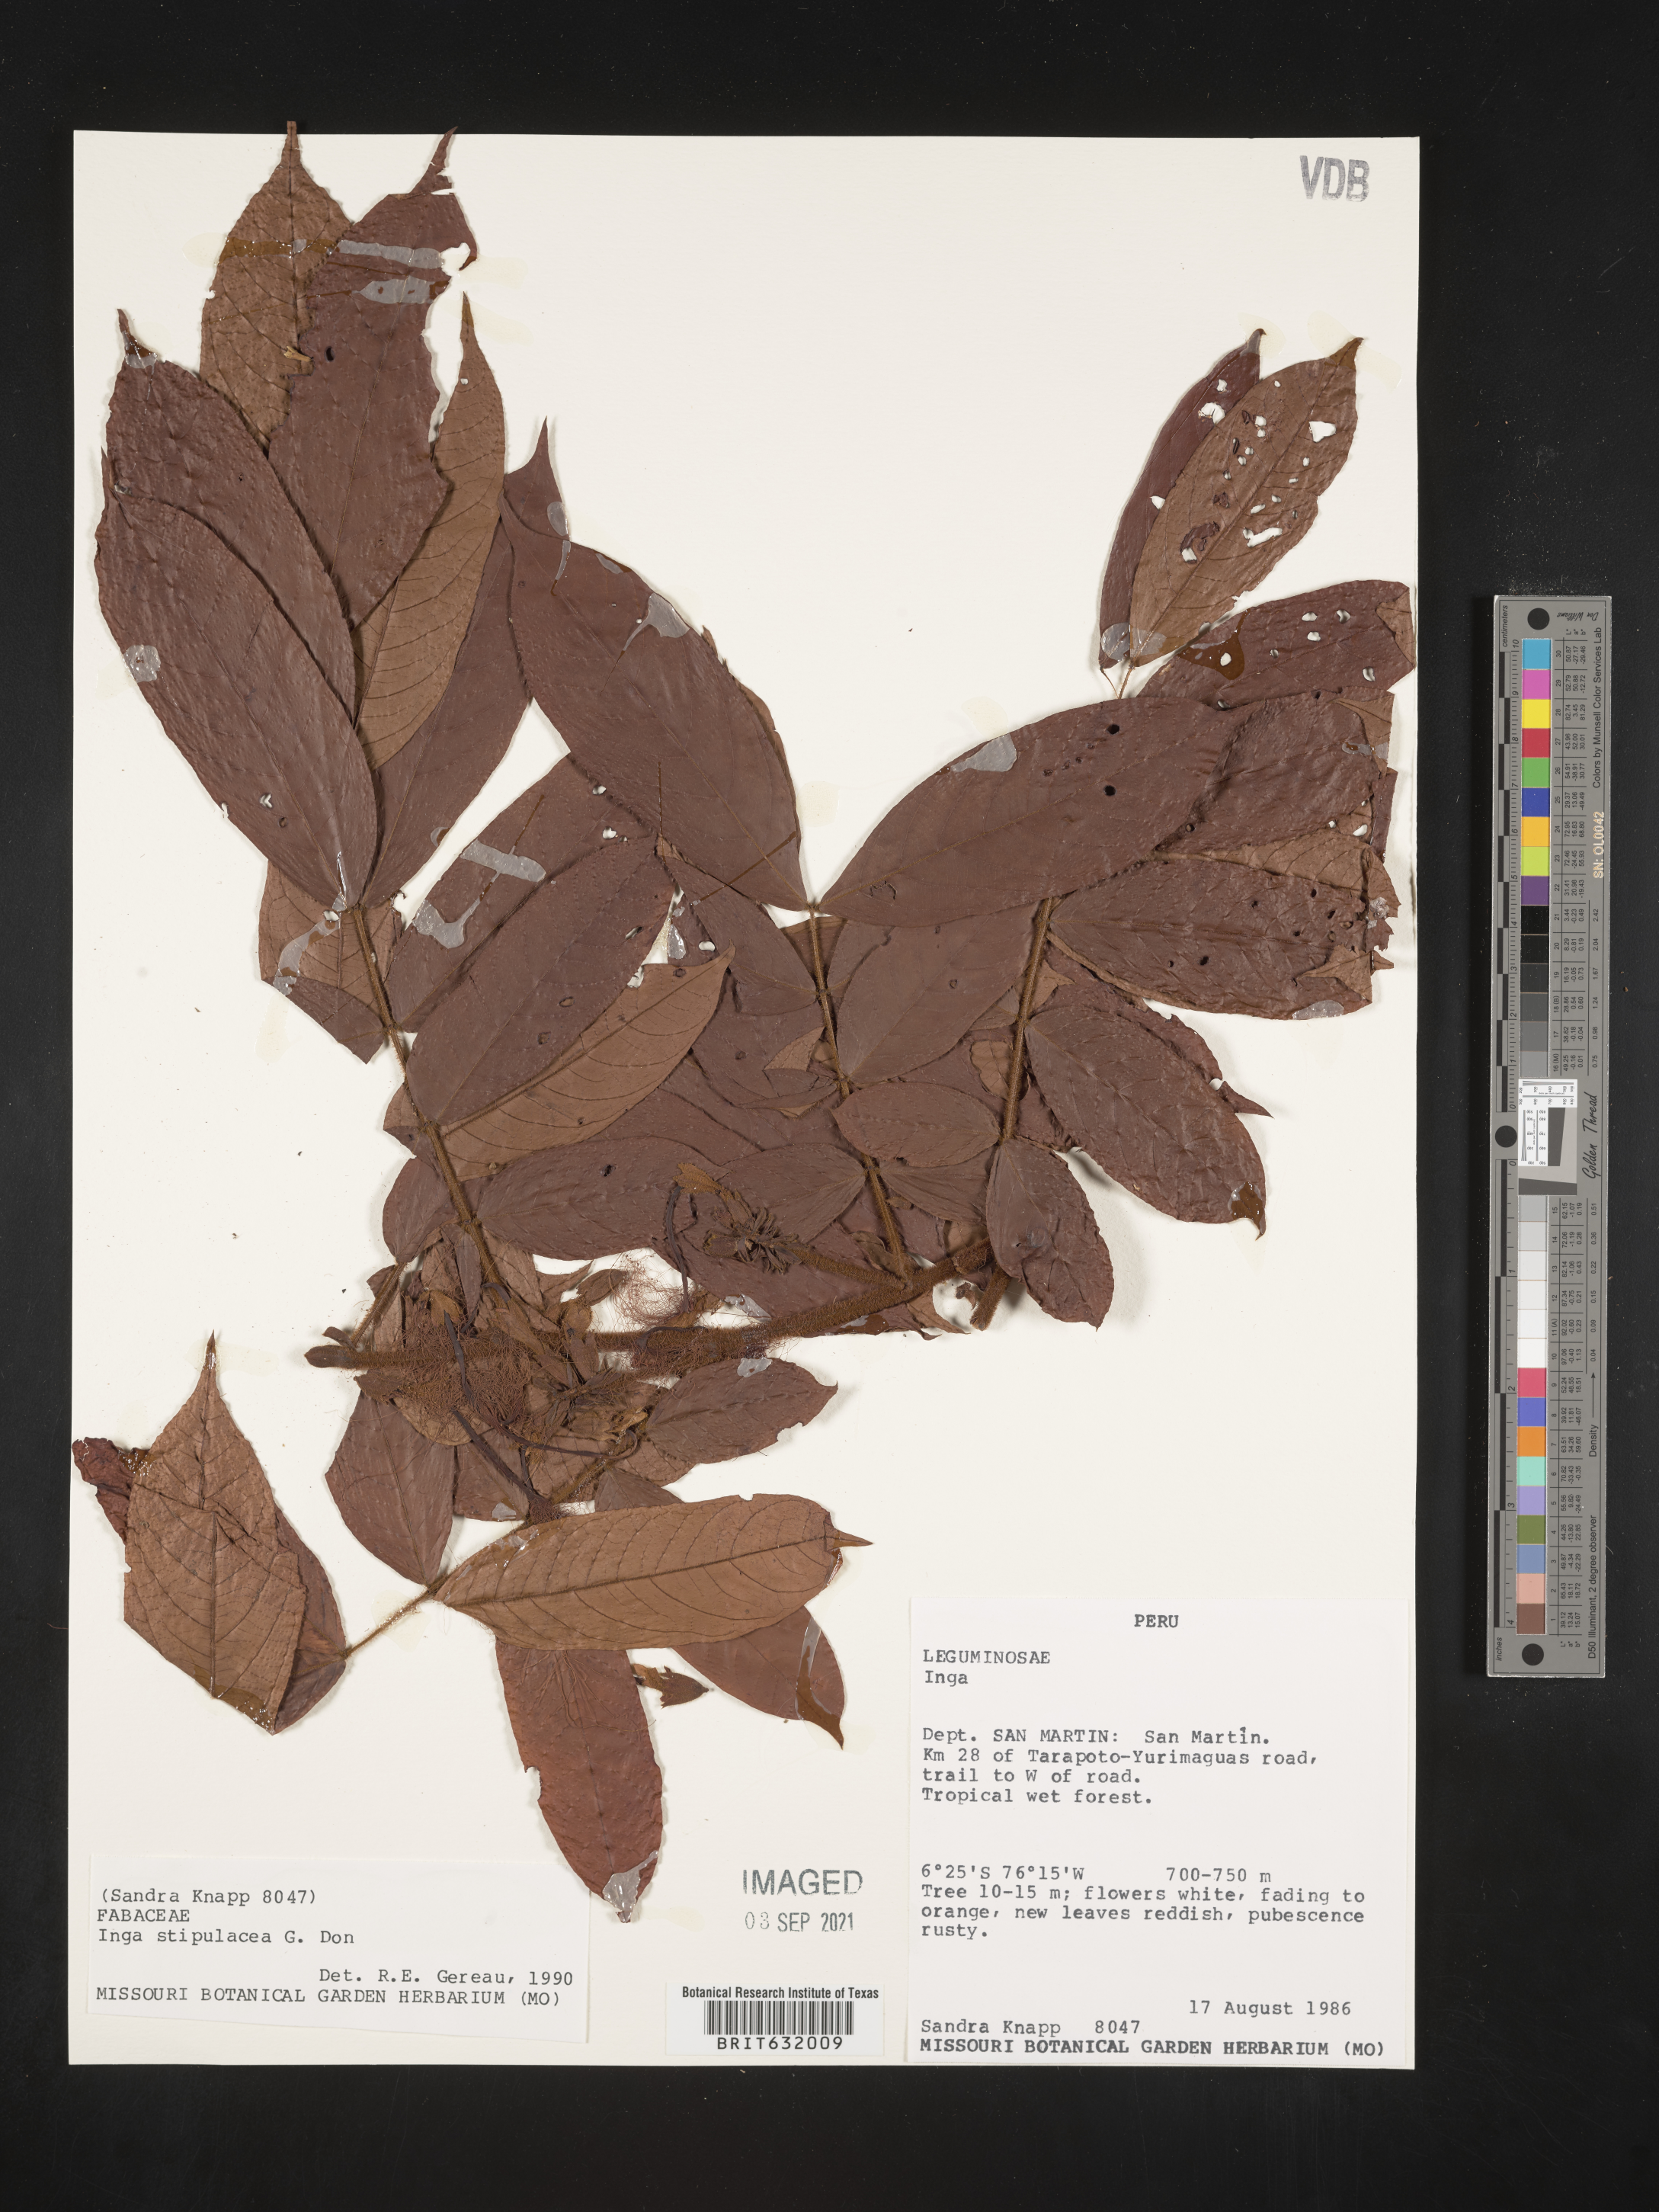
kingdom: Plantae
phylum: Tracheophyta
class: Magnoliopsida
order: Fabales
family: Fabaceae
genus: Inga
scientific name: Inga
